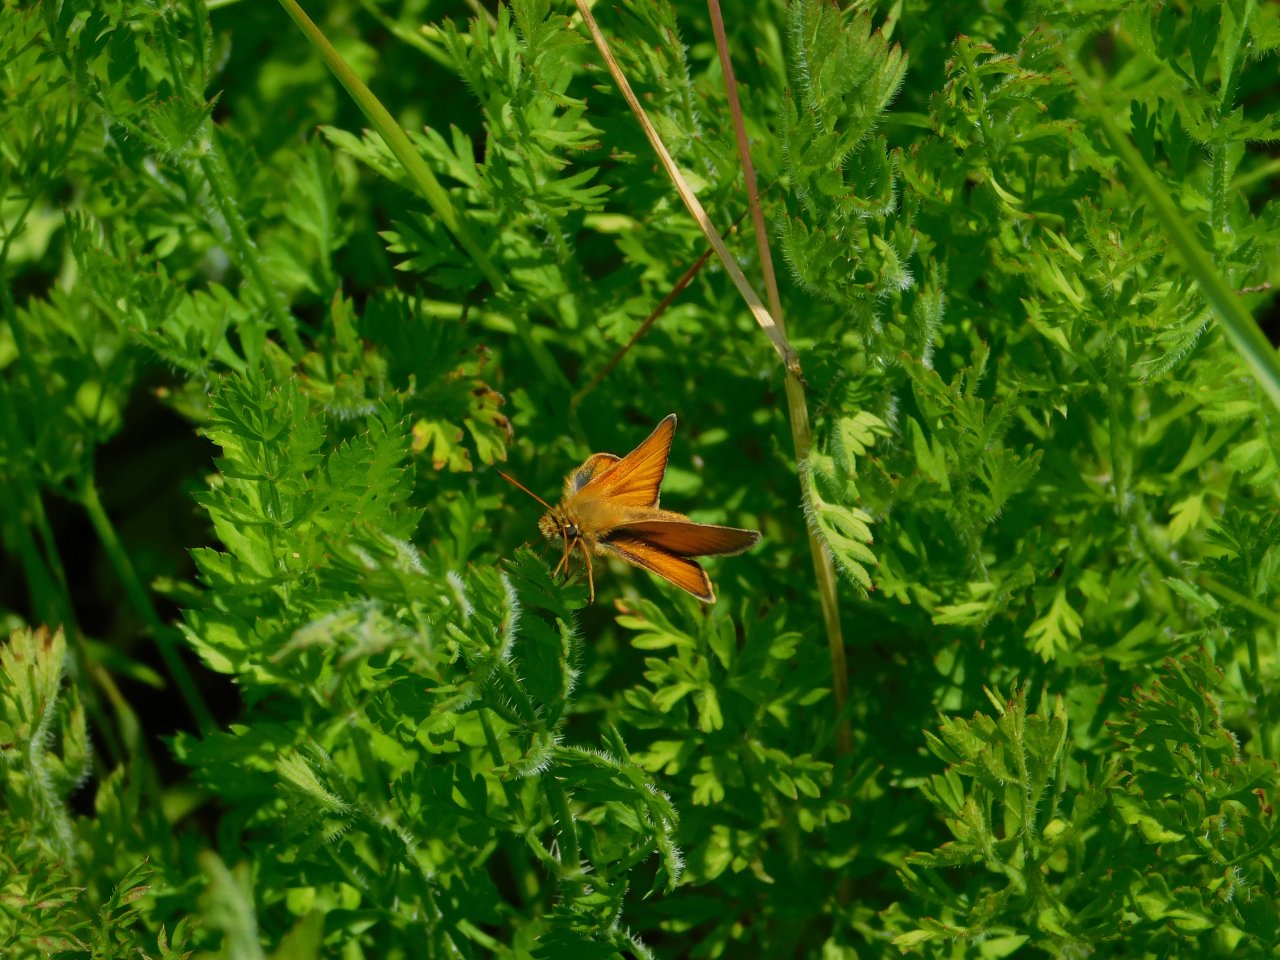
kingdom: Animalia
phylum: Arthropoda
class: Insecta
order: Lepidoptera
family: Hesperiidae
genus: Thymelicus
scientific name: Thymelicus lineola
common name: European Skipper
